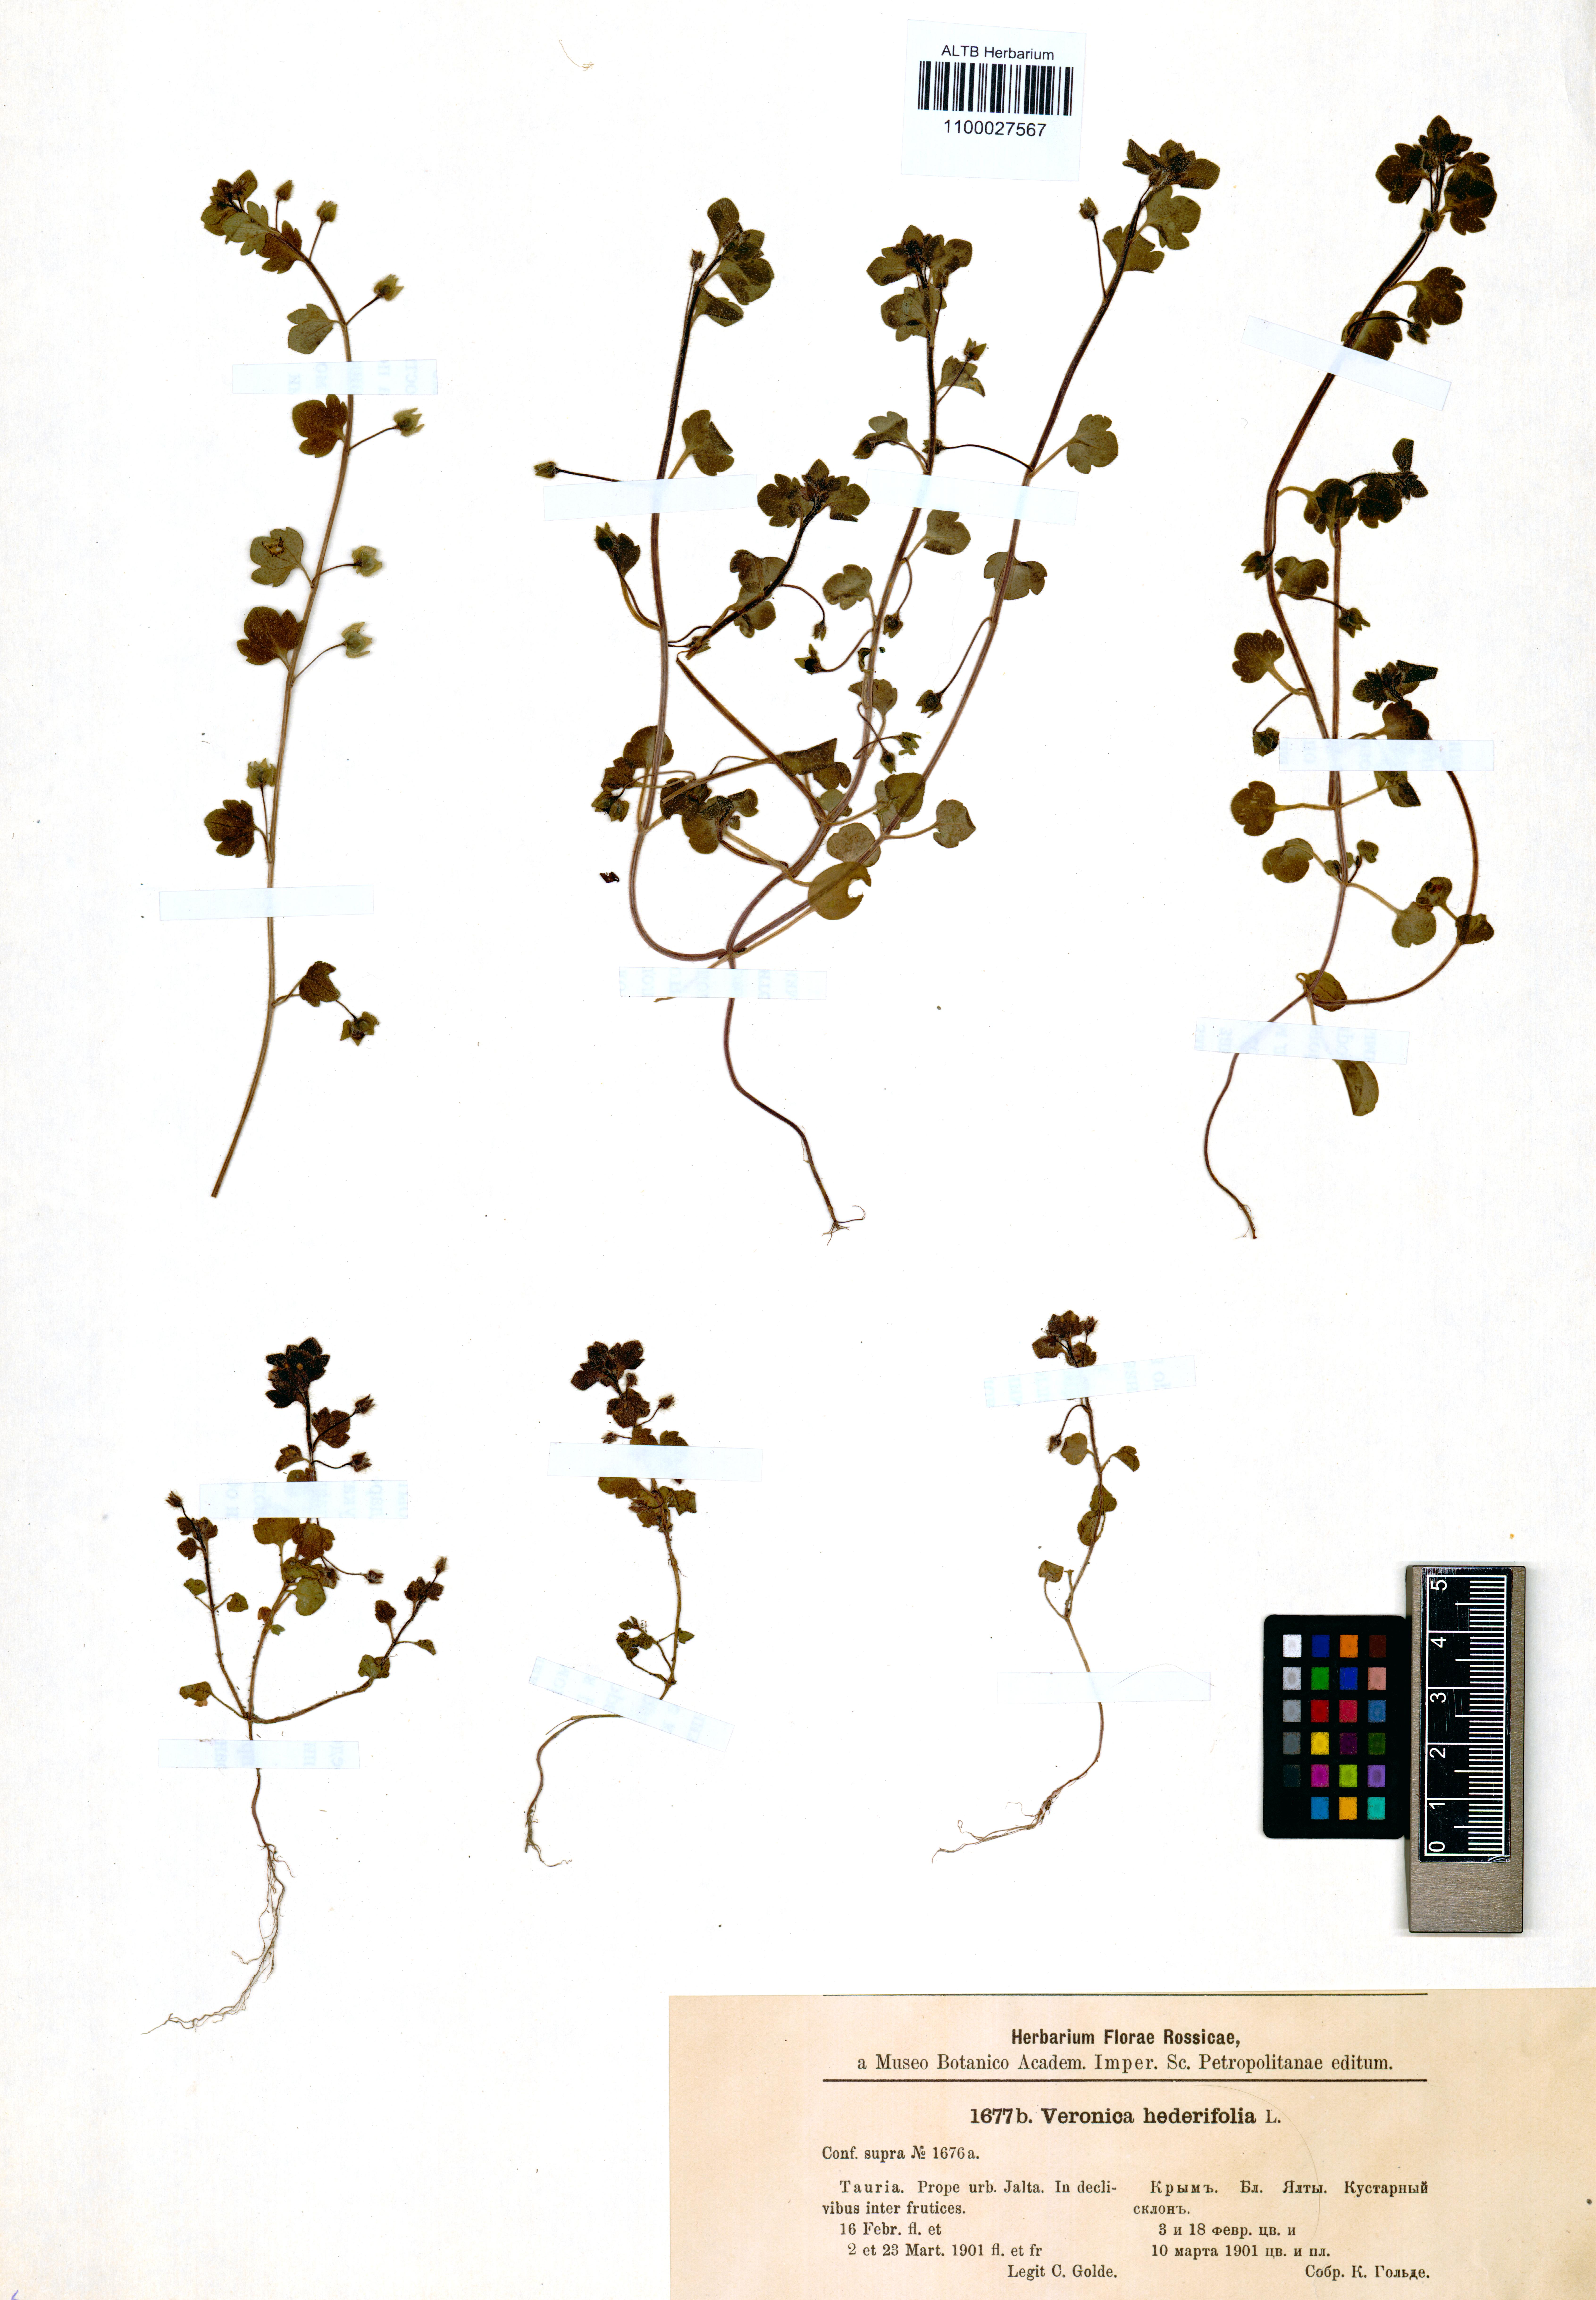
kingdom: Plantae
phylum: Tracheophyta
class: Magnoliopsida
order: Lamiales
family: Plantaginaceae
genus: Veronica
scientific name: Veronica hederifolia
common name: Ivy-leaved speedwell
